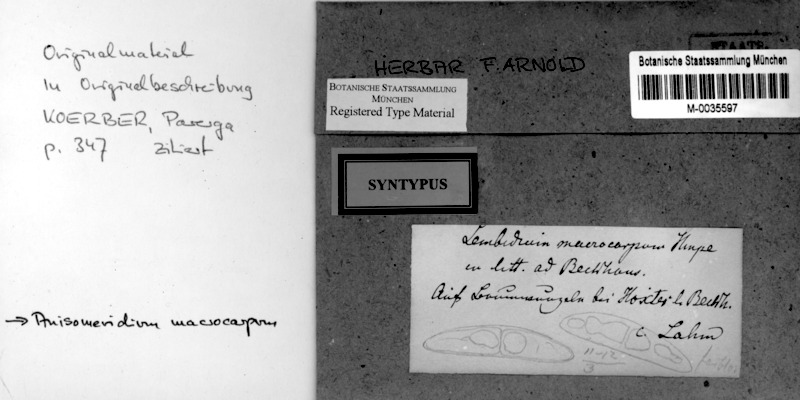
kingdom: Fungi
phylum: Ascomycota
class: Dothideomycetes
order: Monoblastiales
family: Monoblastiaceae
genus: Anisomeridium
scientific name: Anisomeridium macrocarpum
